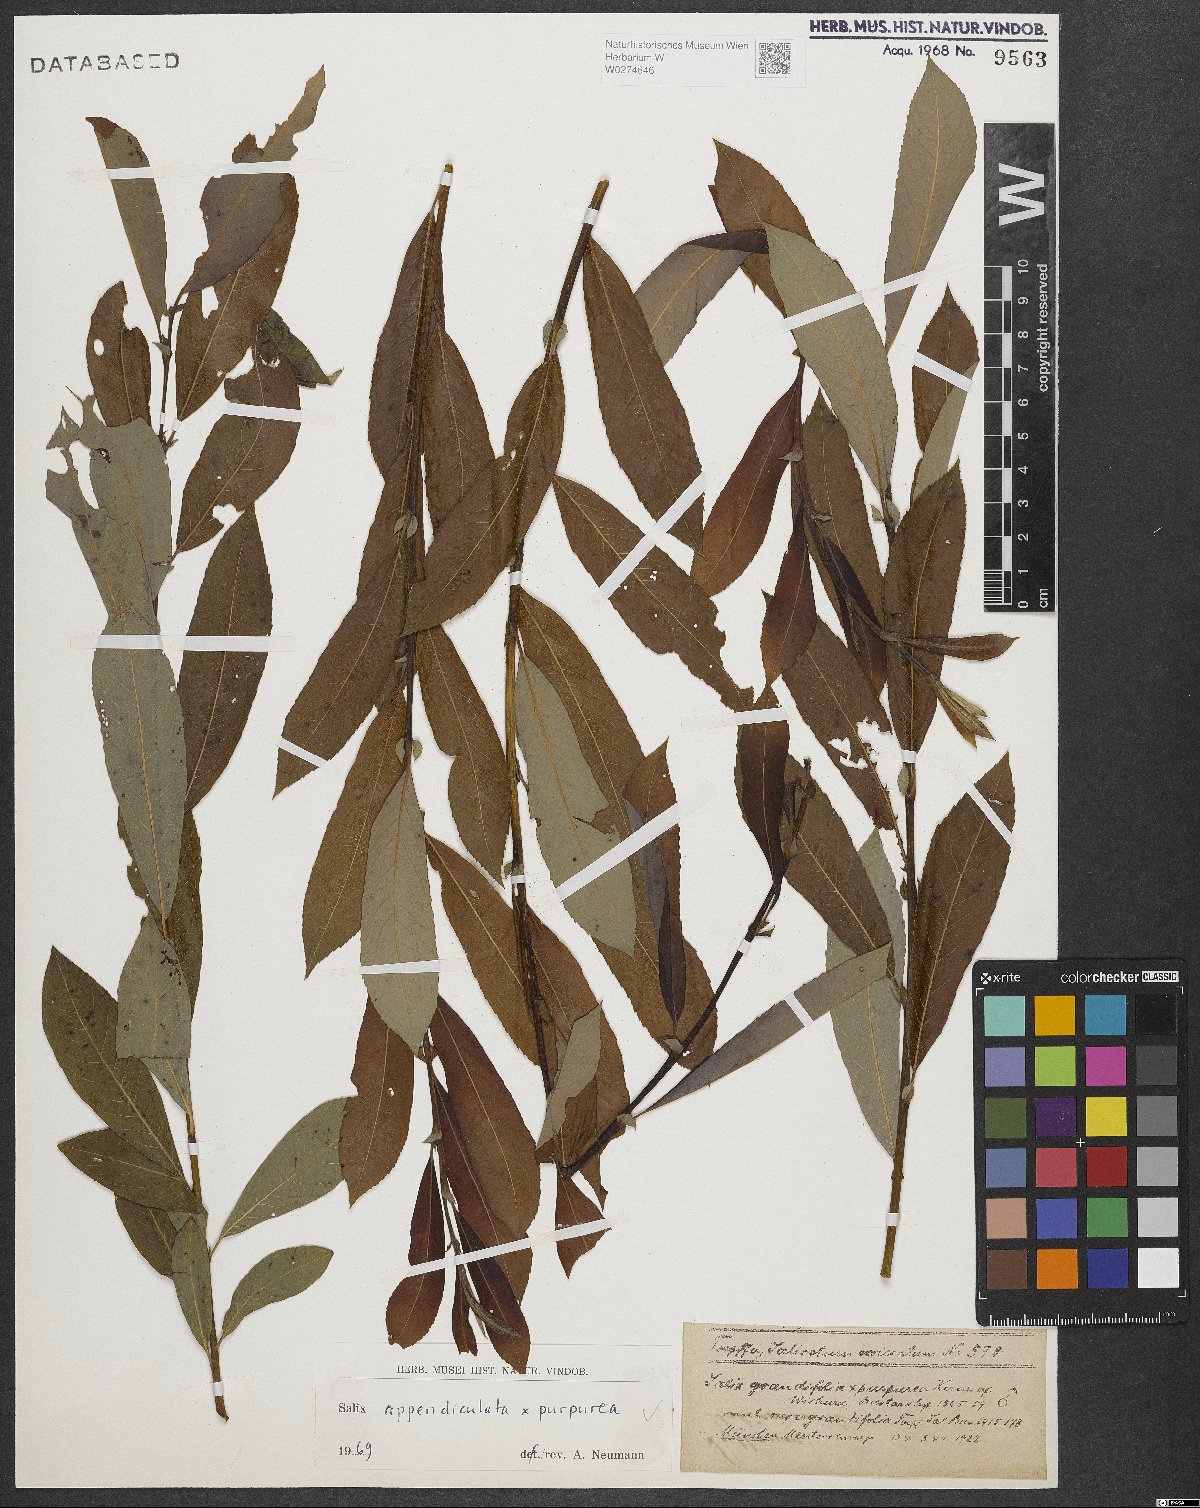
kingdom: Plantae
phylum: Tracheophyta
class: Magnoliopsida
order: Malpighiales
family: Salicaceae
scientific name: Salicaceae
